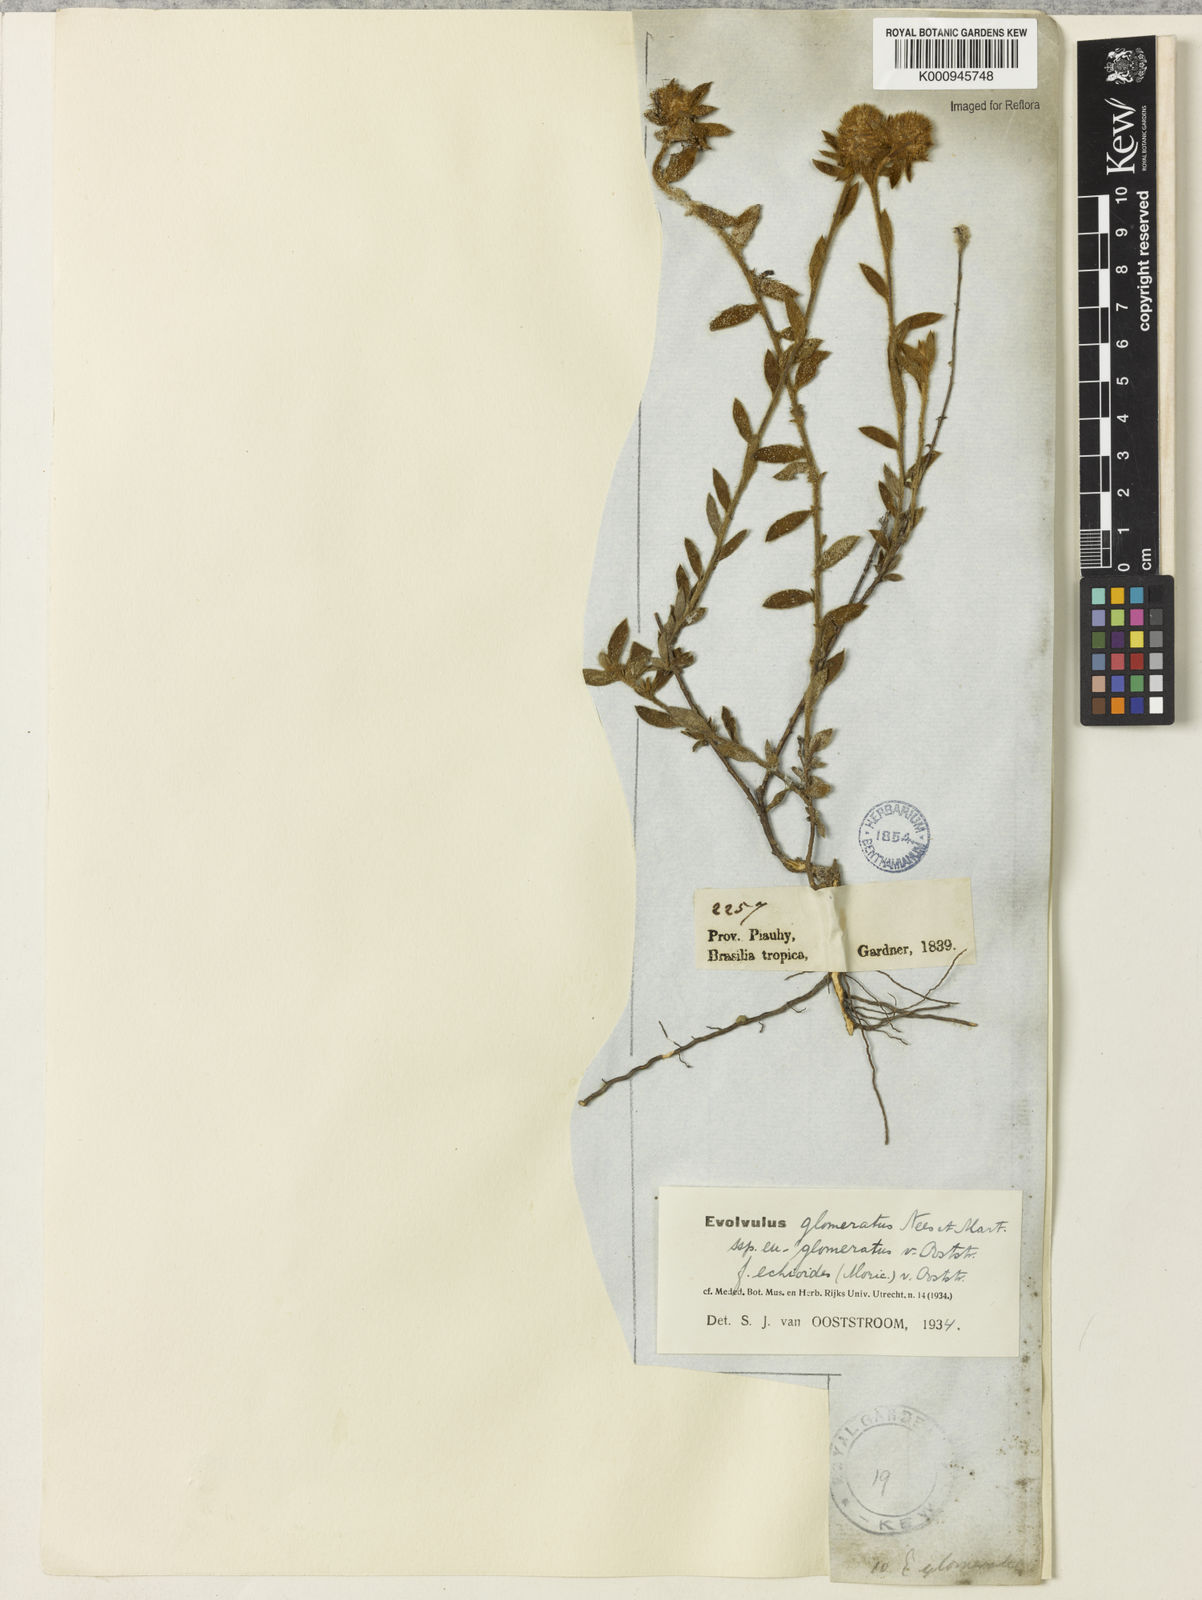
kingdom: Plantae
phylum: Tracheophyta
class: Magnoliopsida
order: Solanales
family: Convolvulaceae
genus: Evolvulus
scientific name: Evolvulus glomeratus
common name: Brazilian dwarf morning-glory
